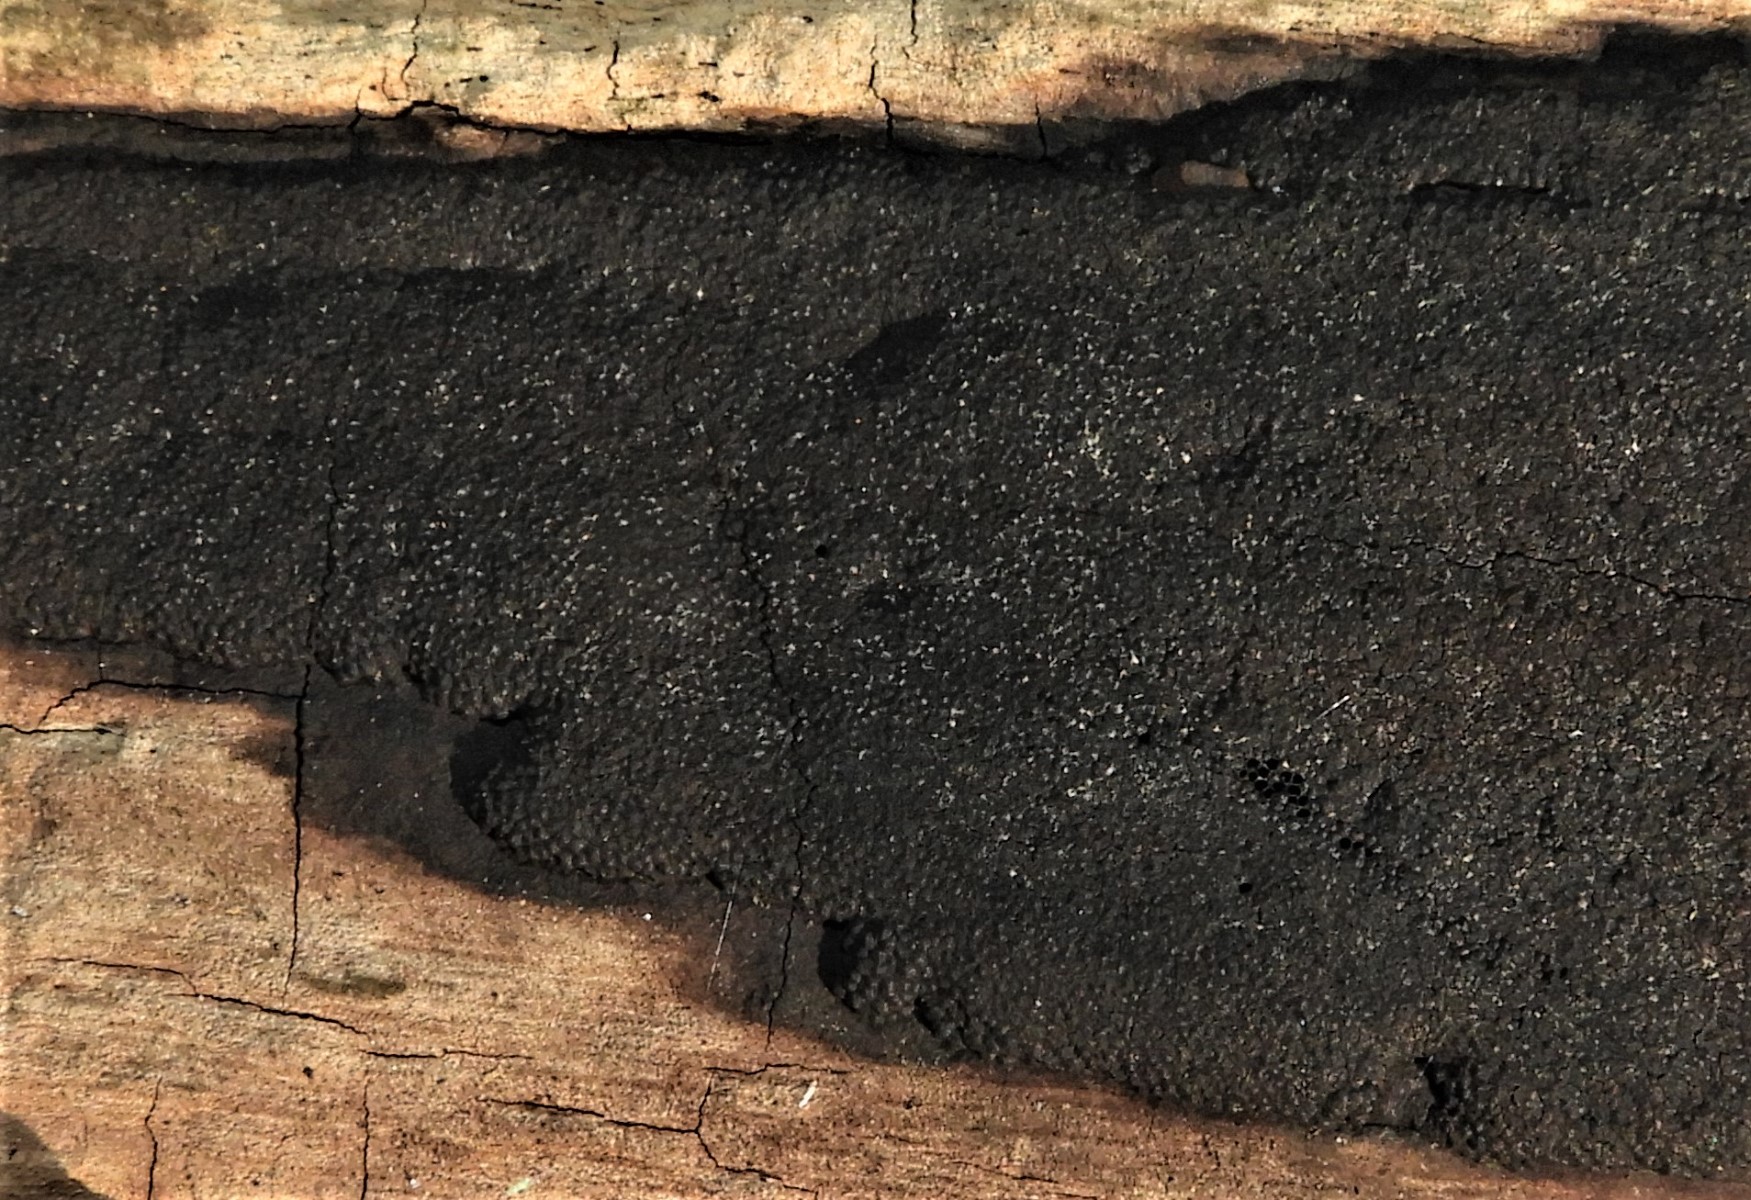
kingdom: Fungi
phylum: Ascomycota
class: Sordariomycetes
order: Xylariales
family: Hypoxylaceae
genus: Hypoxylon
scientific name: Hypoxylon
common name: kulbær
